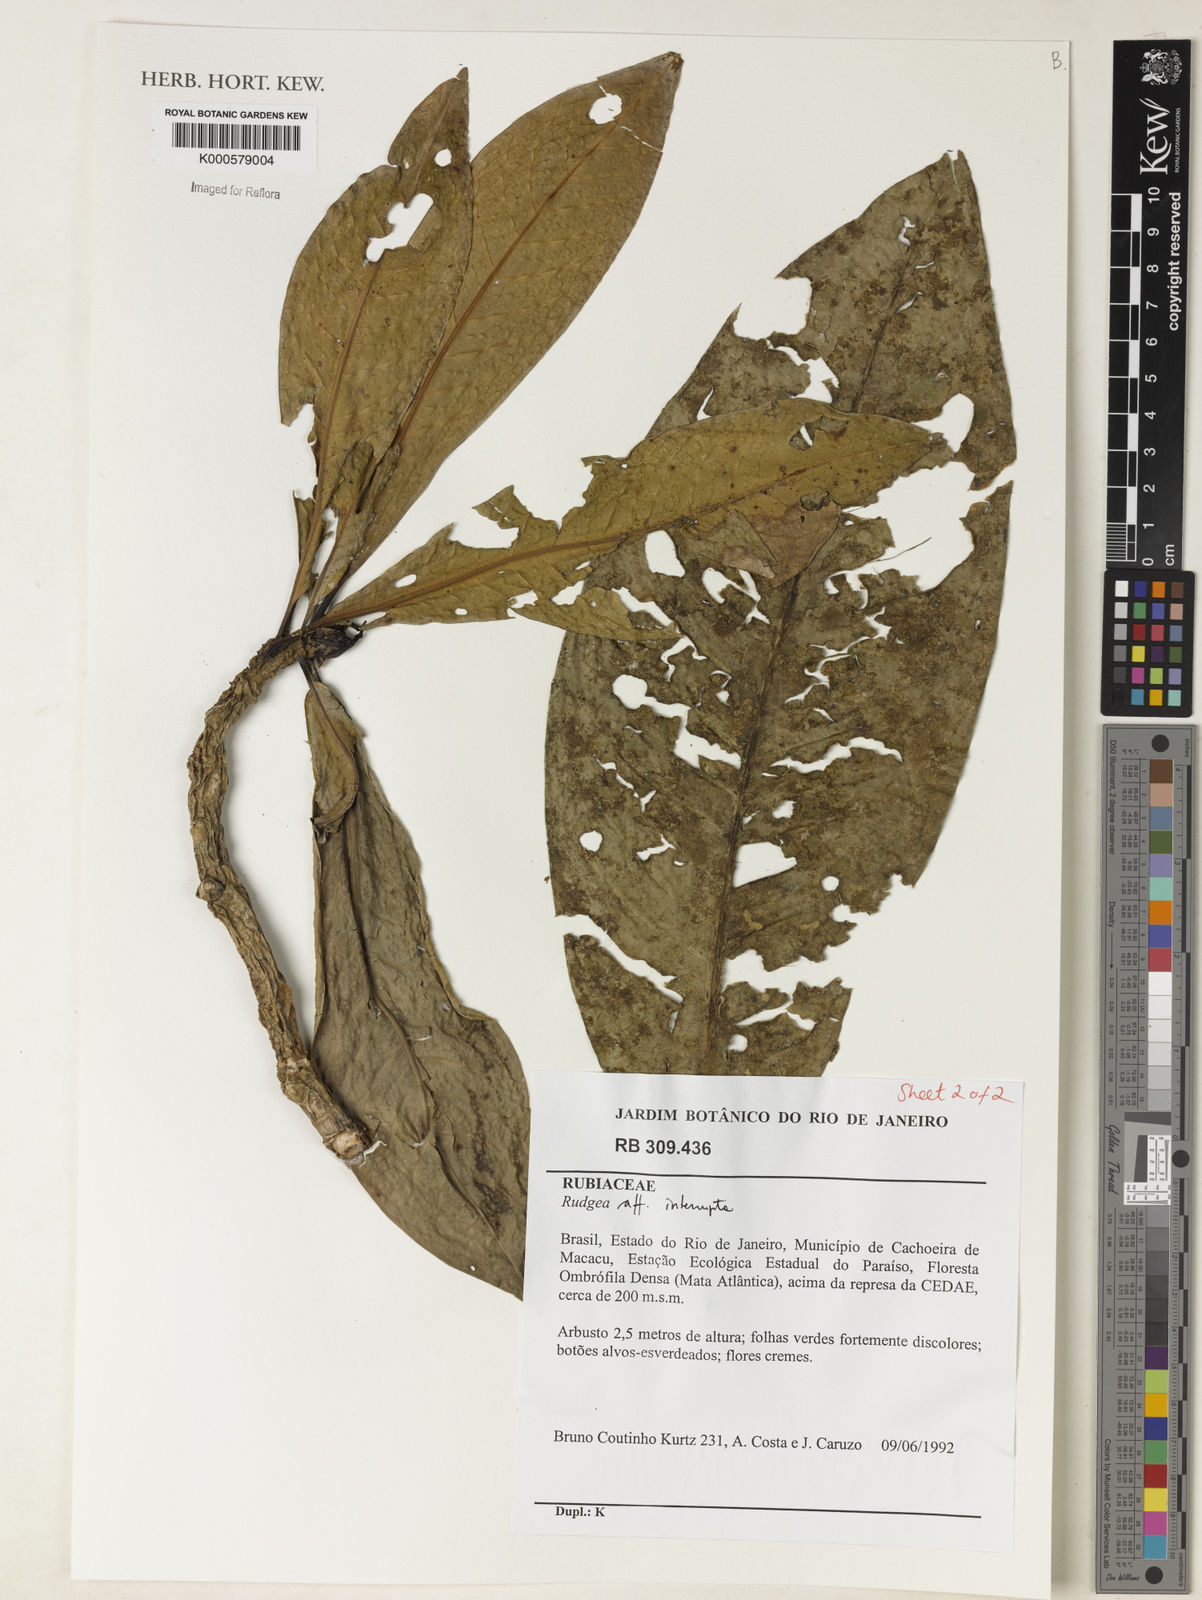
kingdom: Plantae
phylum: Tracheophyta
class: Magnoliopsida
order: Gentianales
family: Rubiaceae
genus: Rudgea
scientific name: Rudgea interrupta
